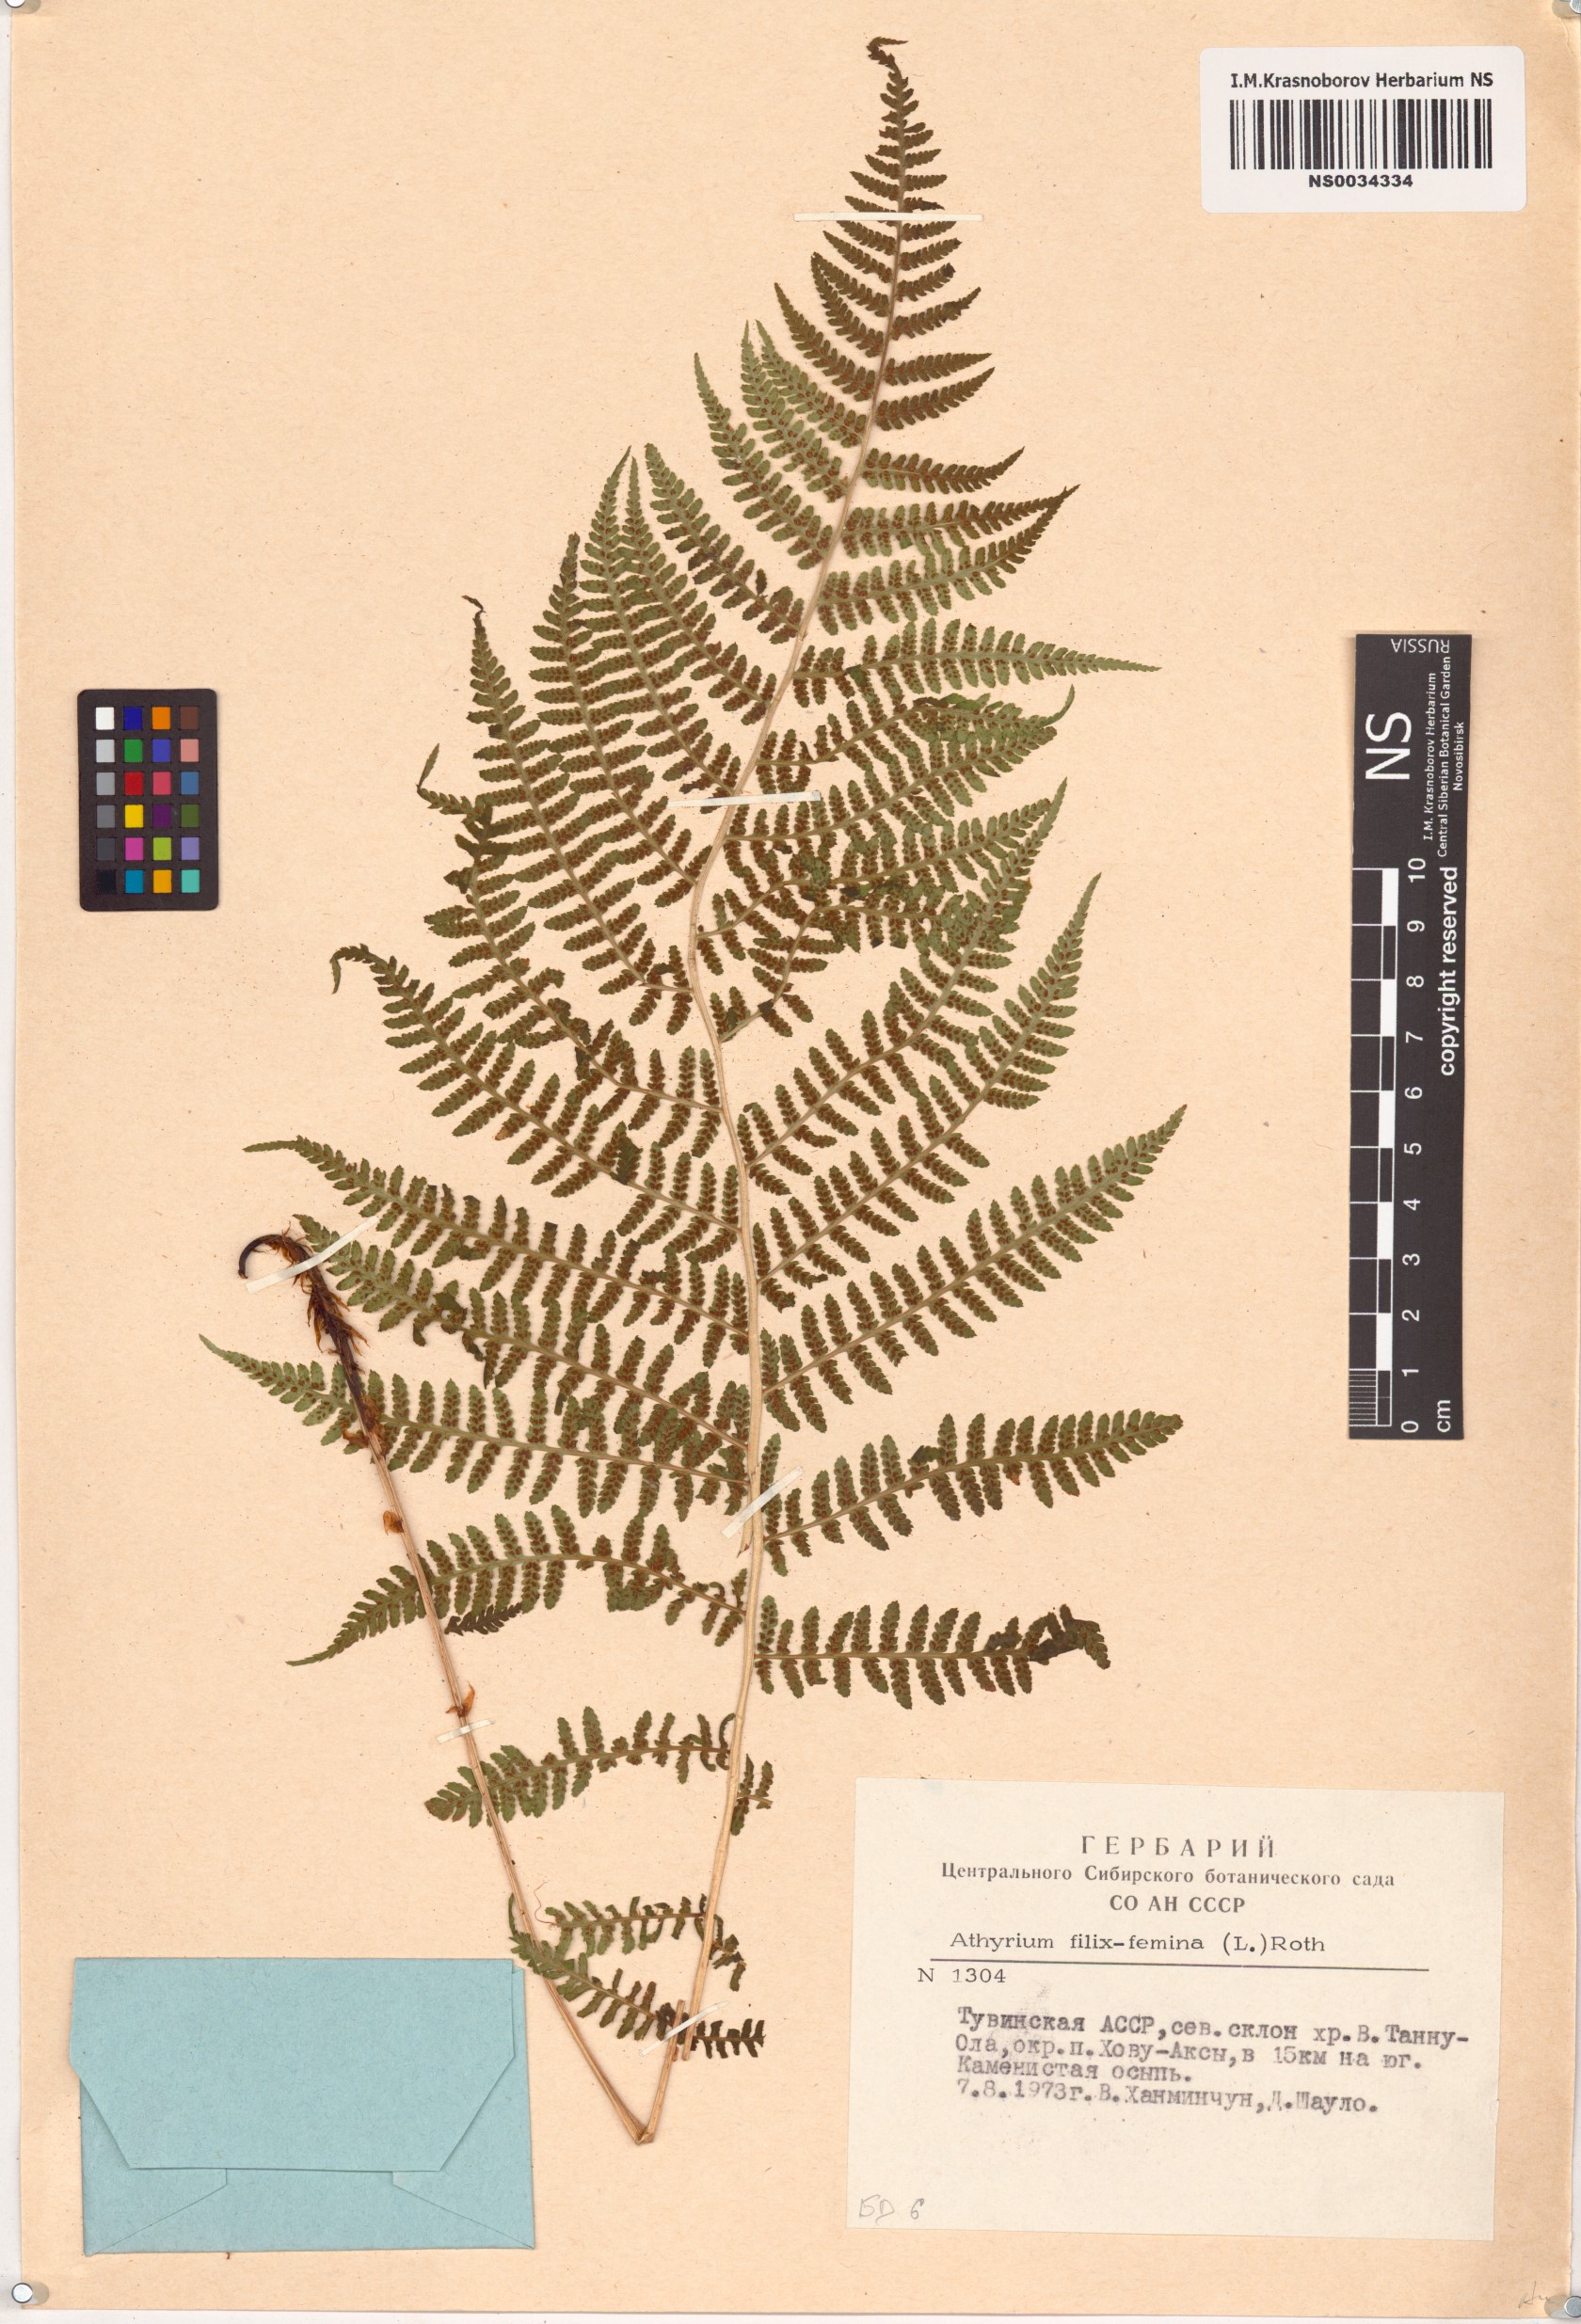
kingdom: Plantae
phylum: Tracheophyta
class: Polypodiopsida
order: Polypodiales
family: Athyriaceae
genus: Athyrium
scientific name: Athyrium filix-femina
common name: Lady fern
